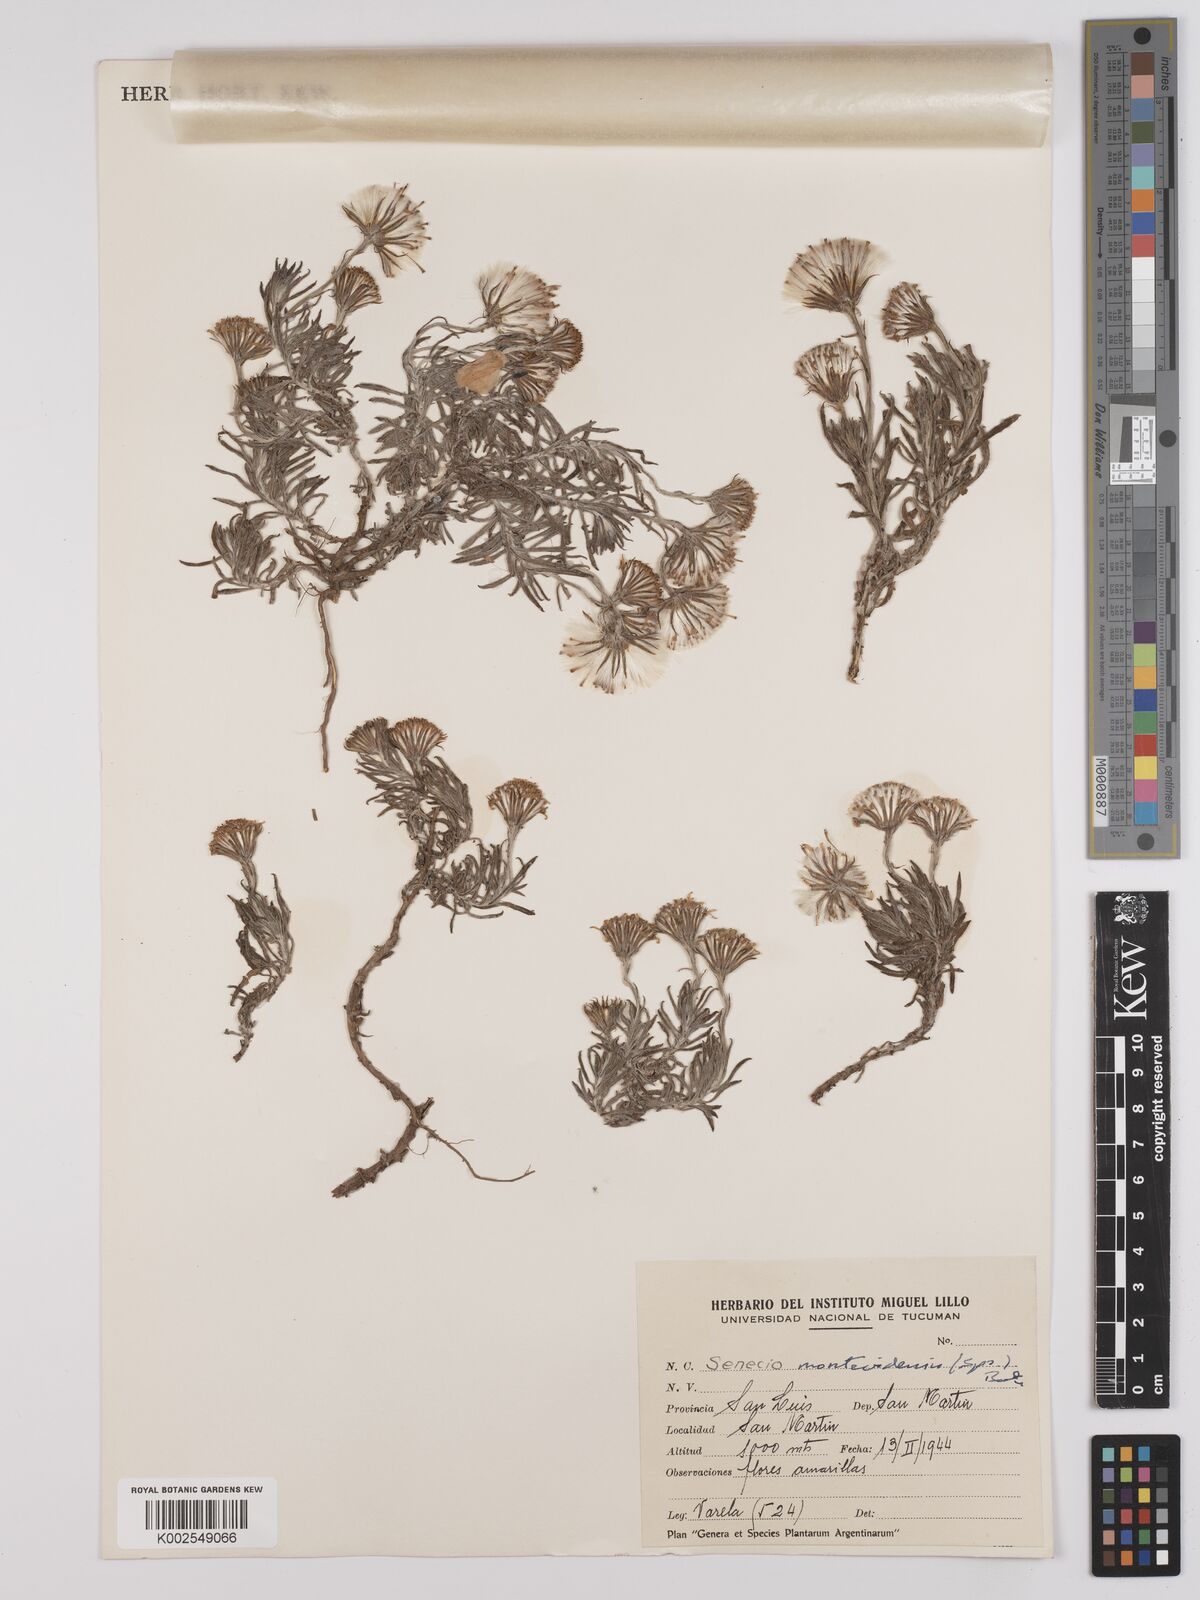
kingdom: Plantae
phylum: Tracheophyta
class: Magnoliopsida
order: Asterales
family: Asteraceae
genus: Senecio
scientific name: Senecio montevidensis
